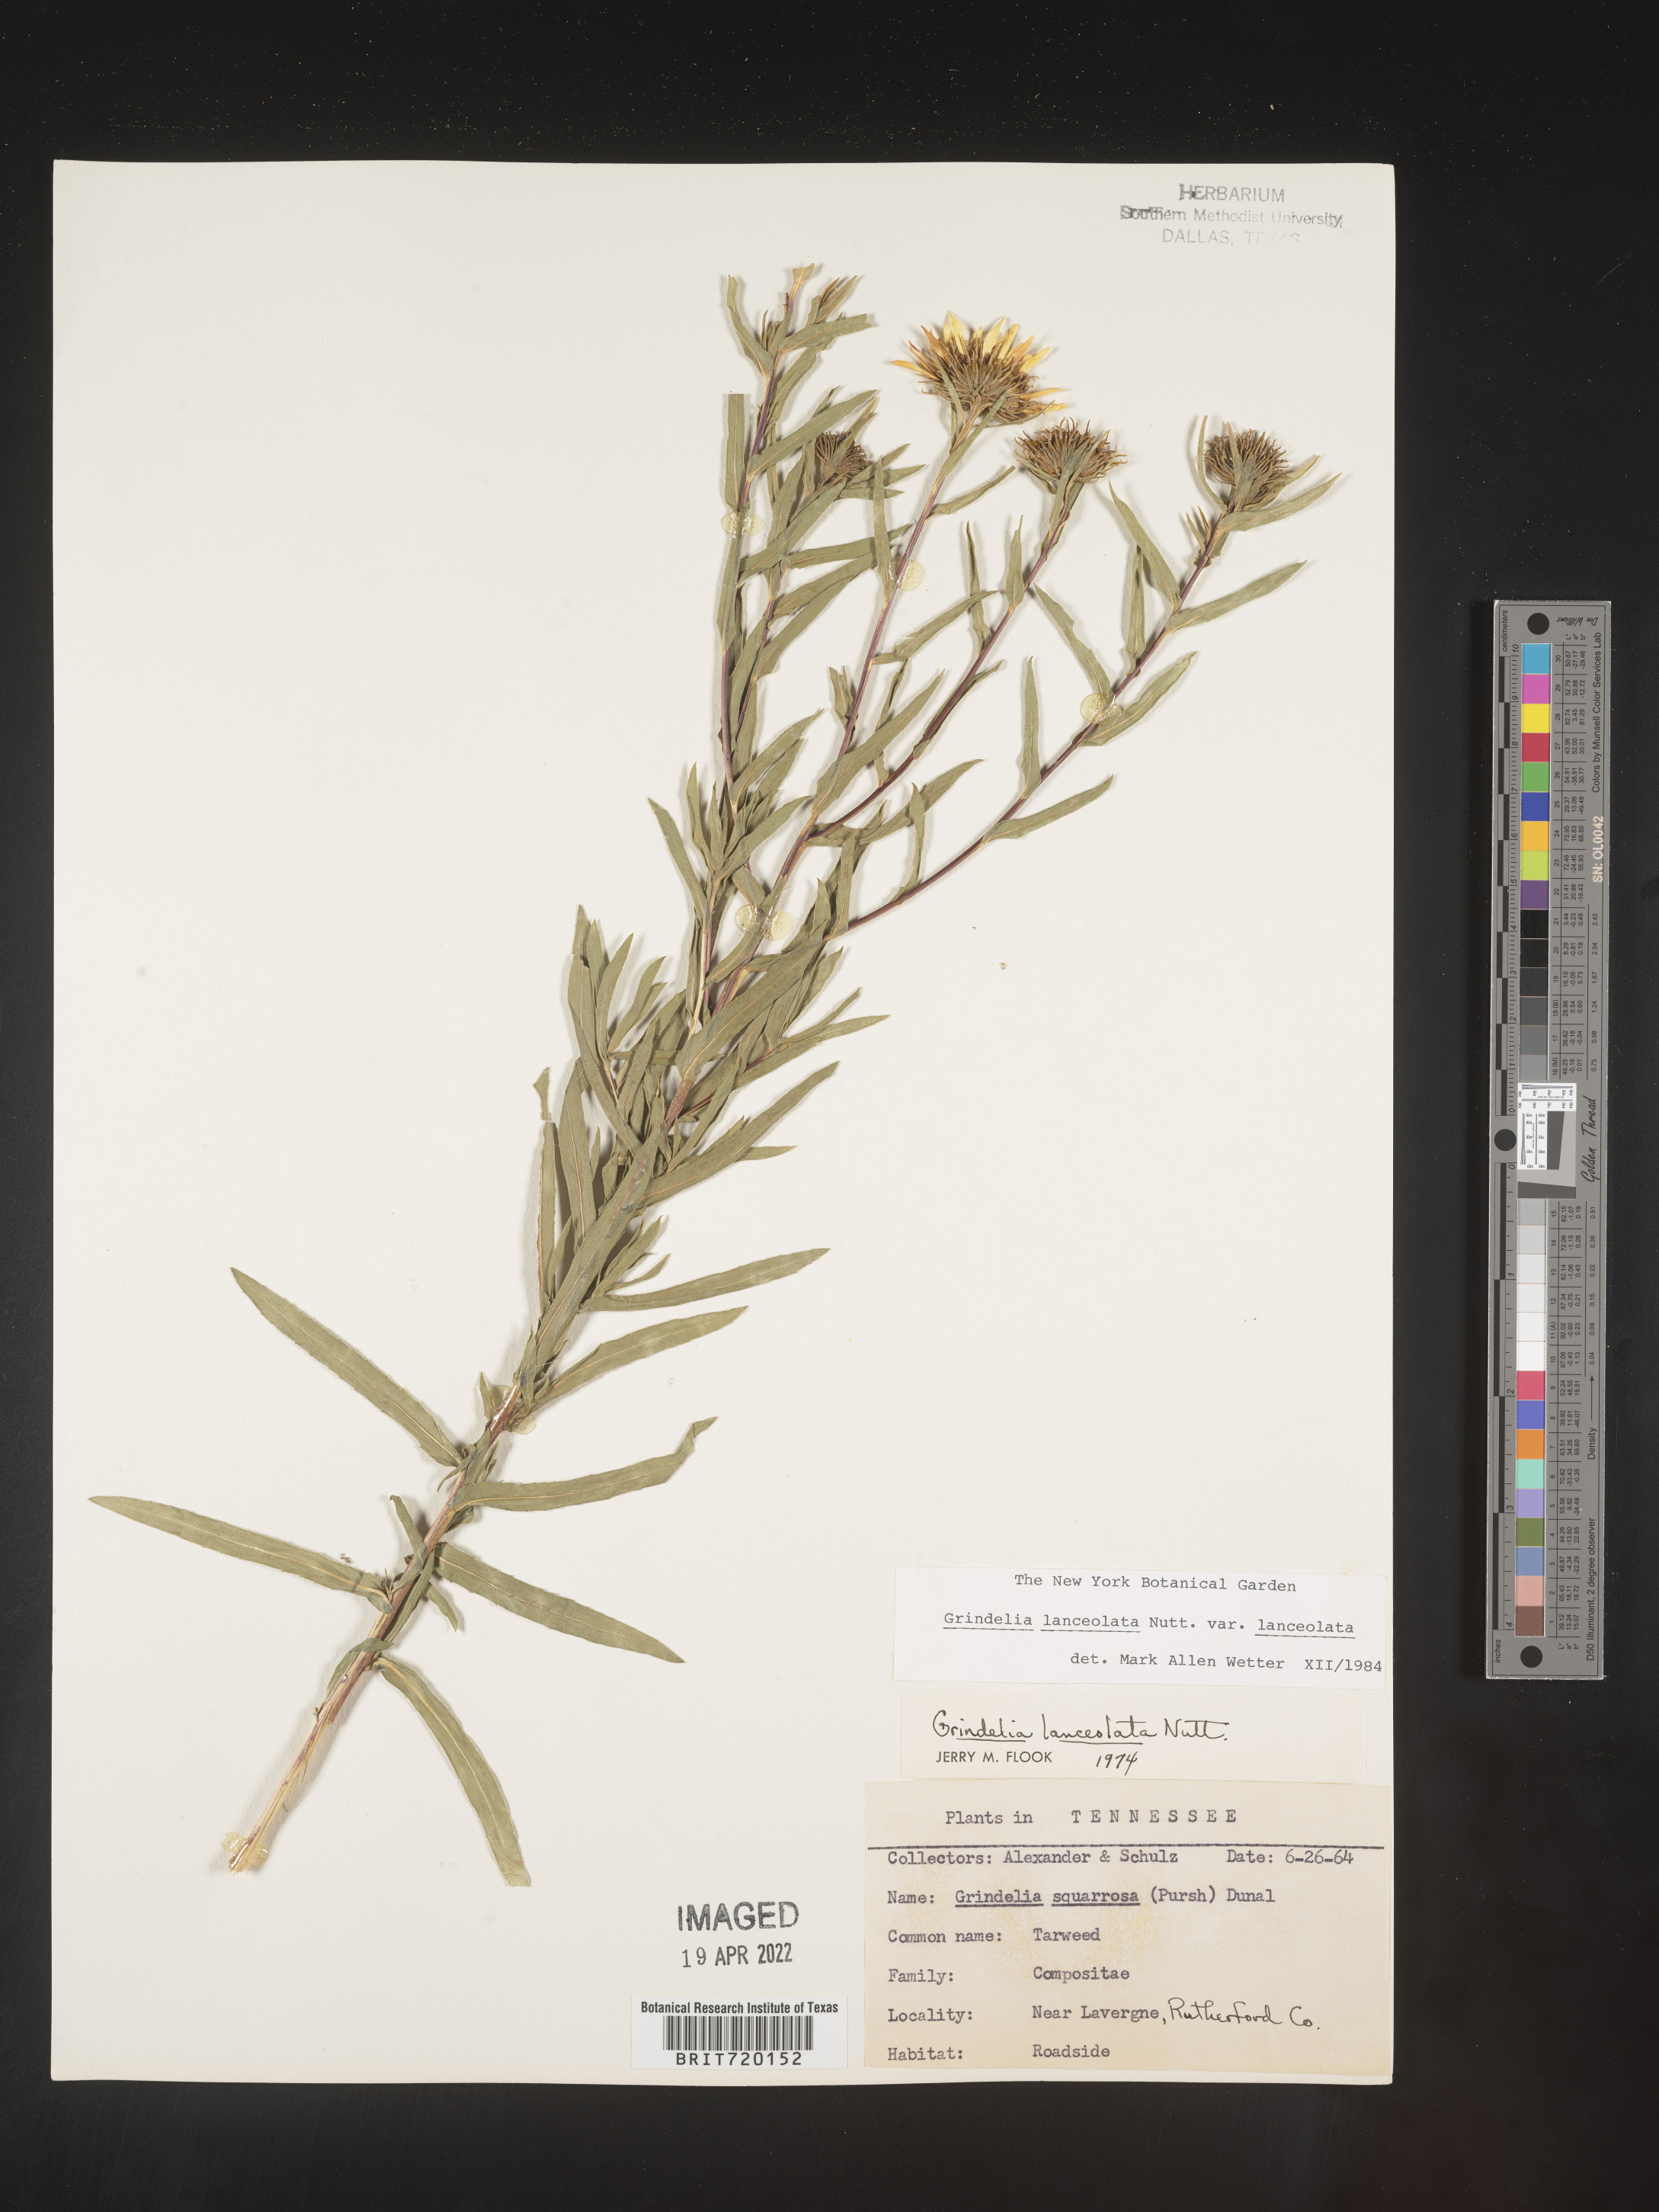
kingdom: Plantae
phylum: Tracheophyta
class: Magnoliopsida
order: Asterales
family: Asteraceae
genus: Grindelia
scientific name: Grindelia lanceolata
